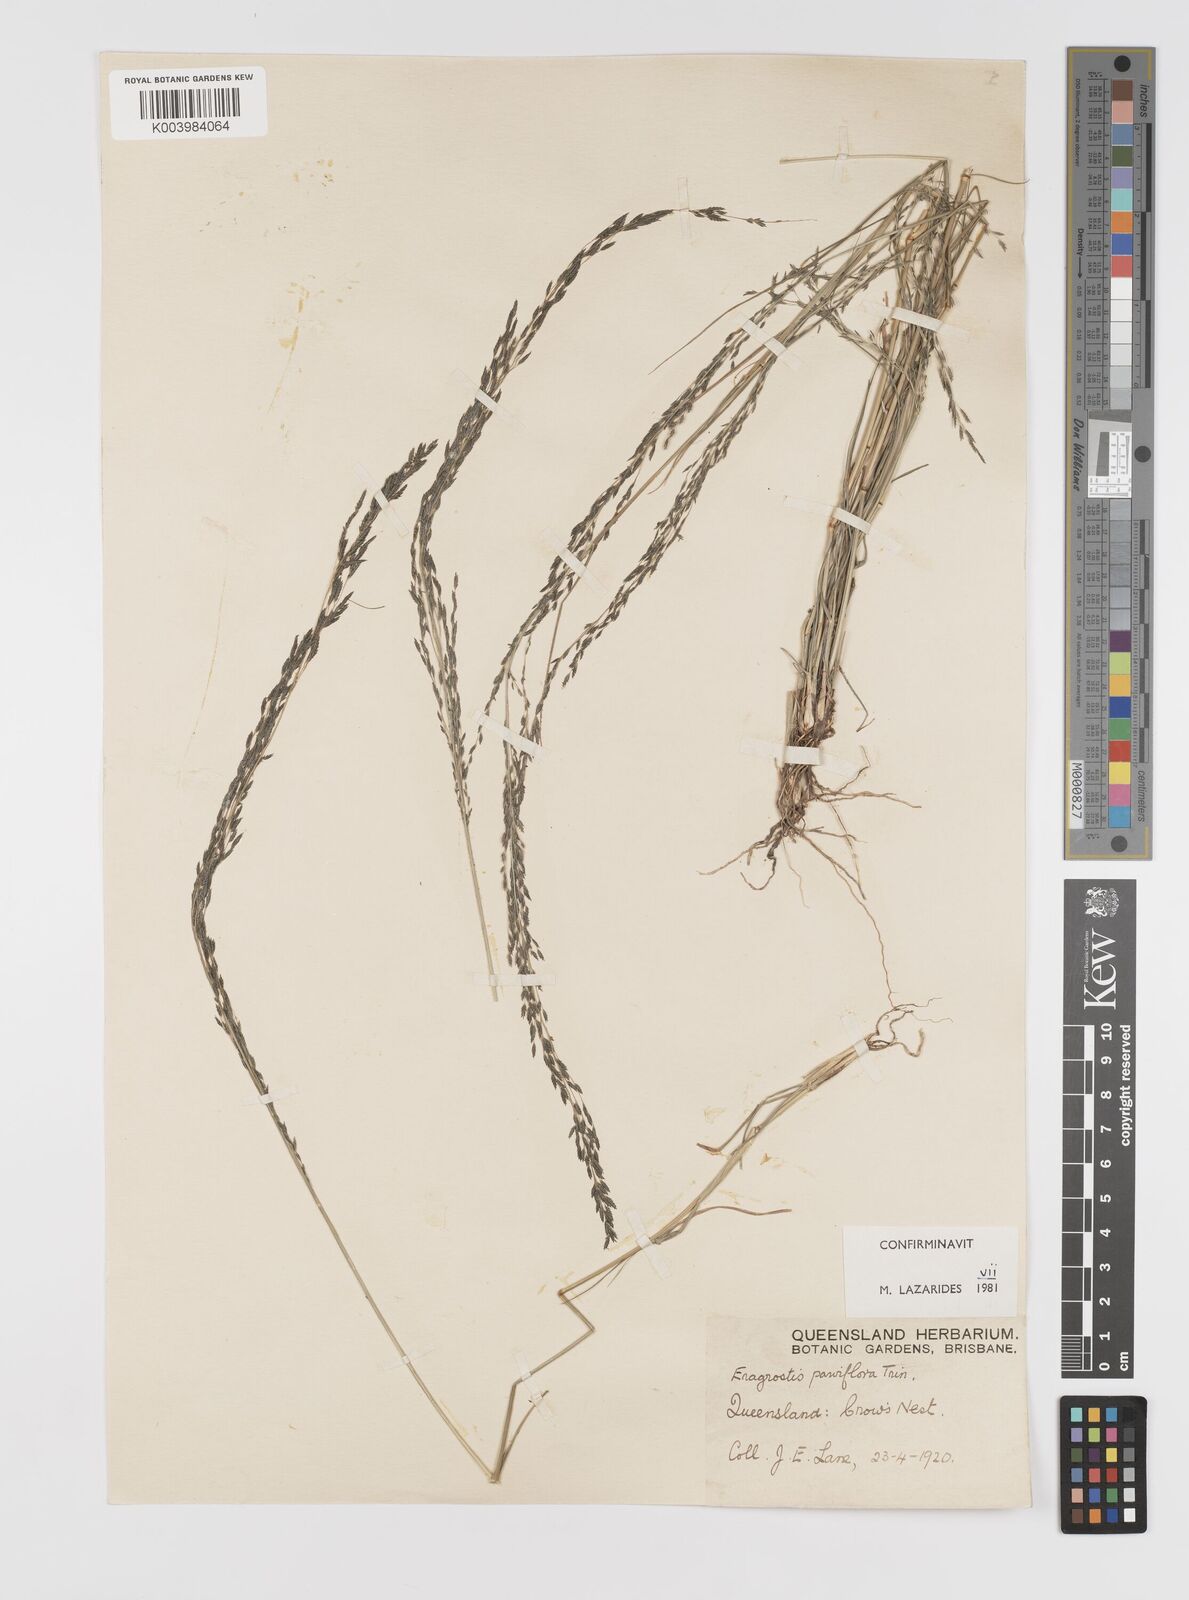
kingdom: Plantae
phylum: Tracheophyta
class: Liliopsida
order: Poales
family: Poaceae
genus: Eragrostis
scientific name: Eragrostis parviflora
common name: Weeping love-grass
